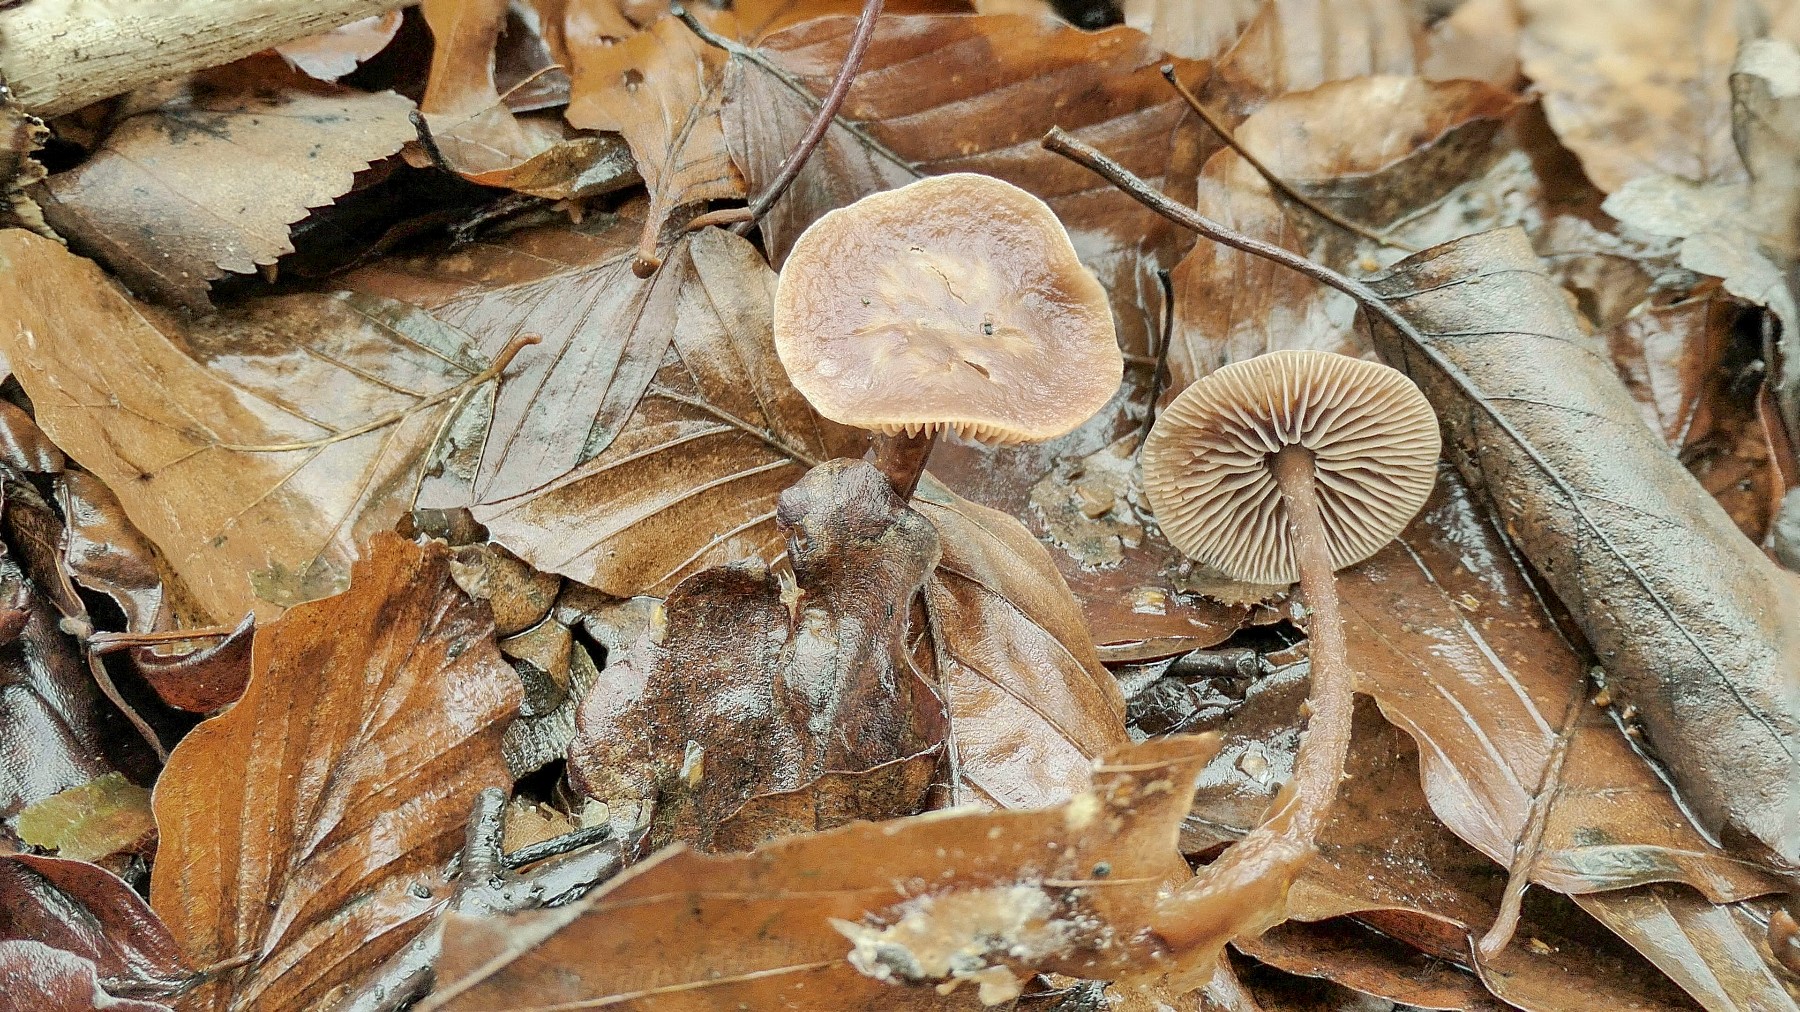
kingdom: Fungi
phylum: Basidiomycota
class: Agaricomycetes
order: Agaricales
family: Omphalotaceae
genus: Gymnopus
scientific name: Gymnopus fuscopurpureus
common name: purpurbrun fladhat
